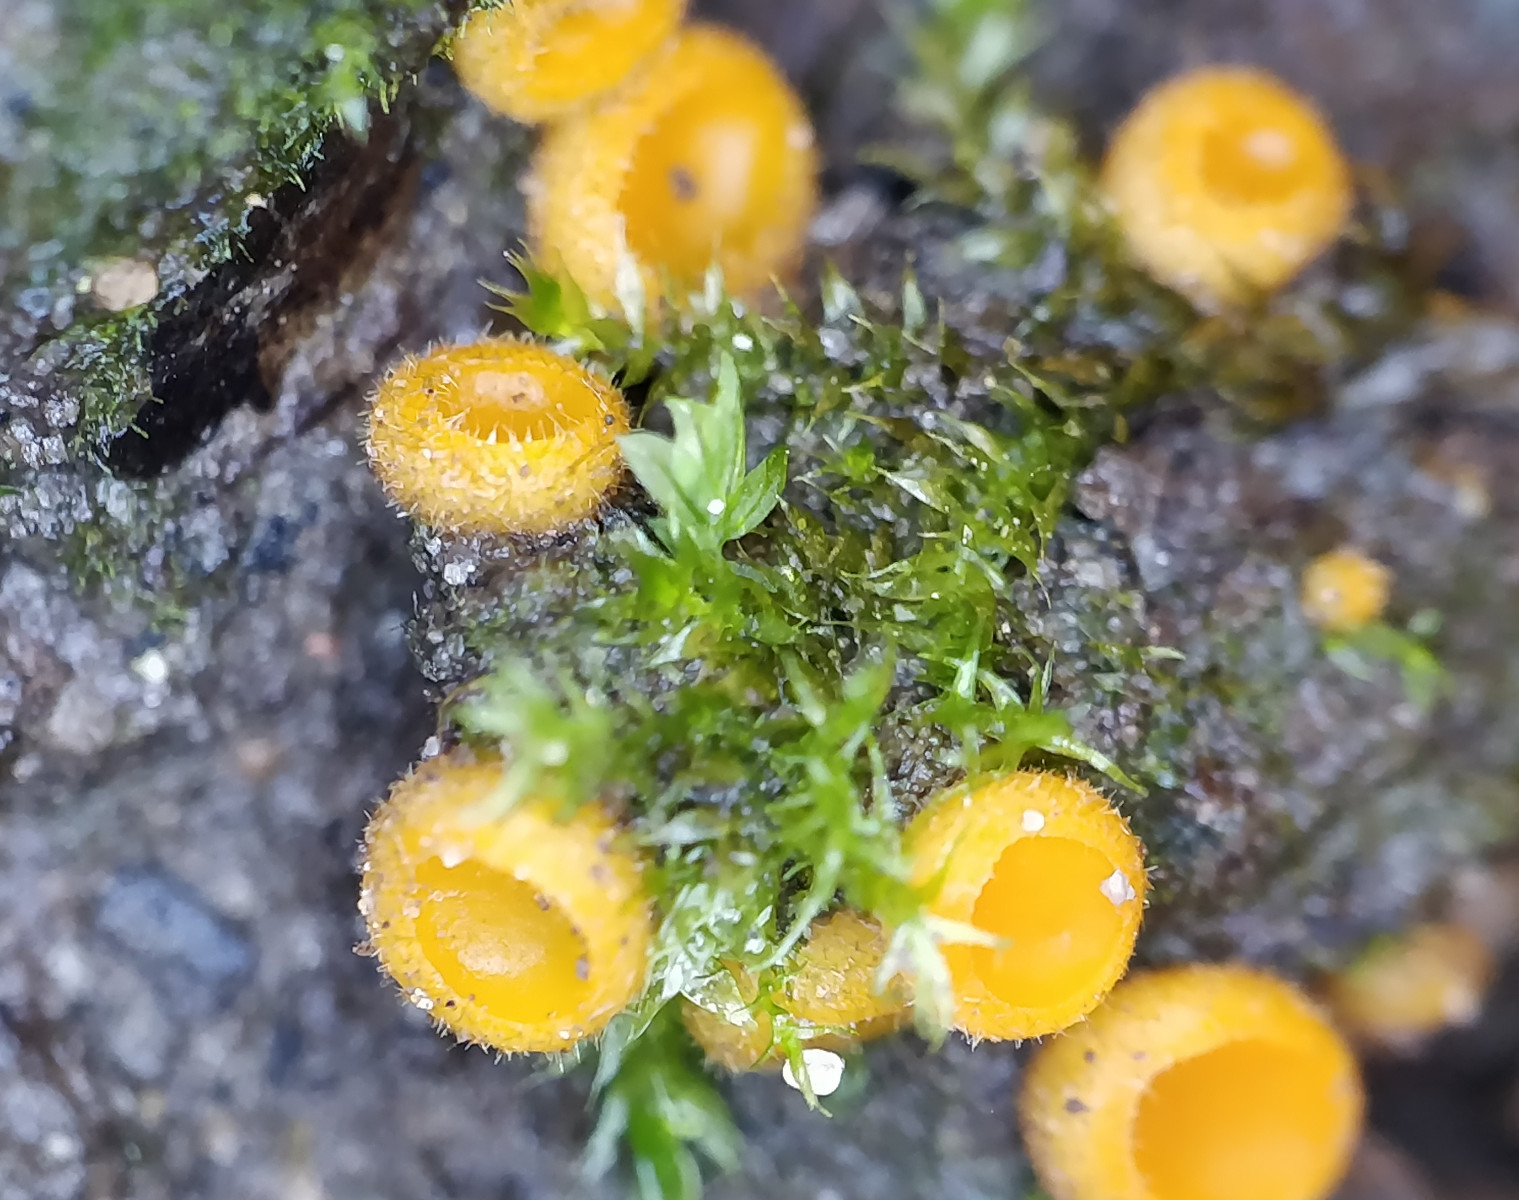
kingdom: Fungi
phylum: Ascomycota
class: Pezizomycetes
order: Pezizales
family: Pyronemataceae
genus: Cheilymenia
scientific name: Cheilymenia
